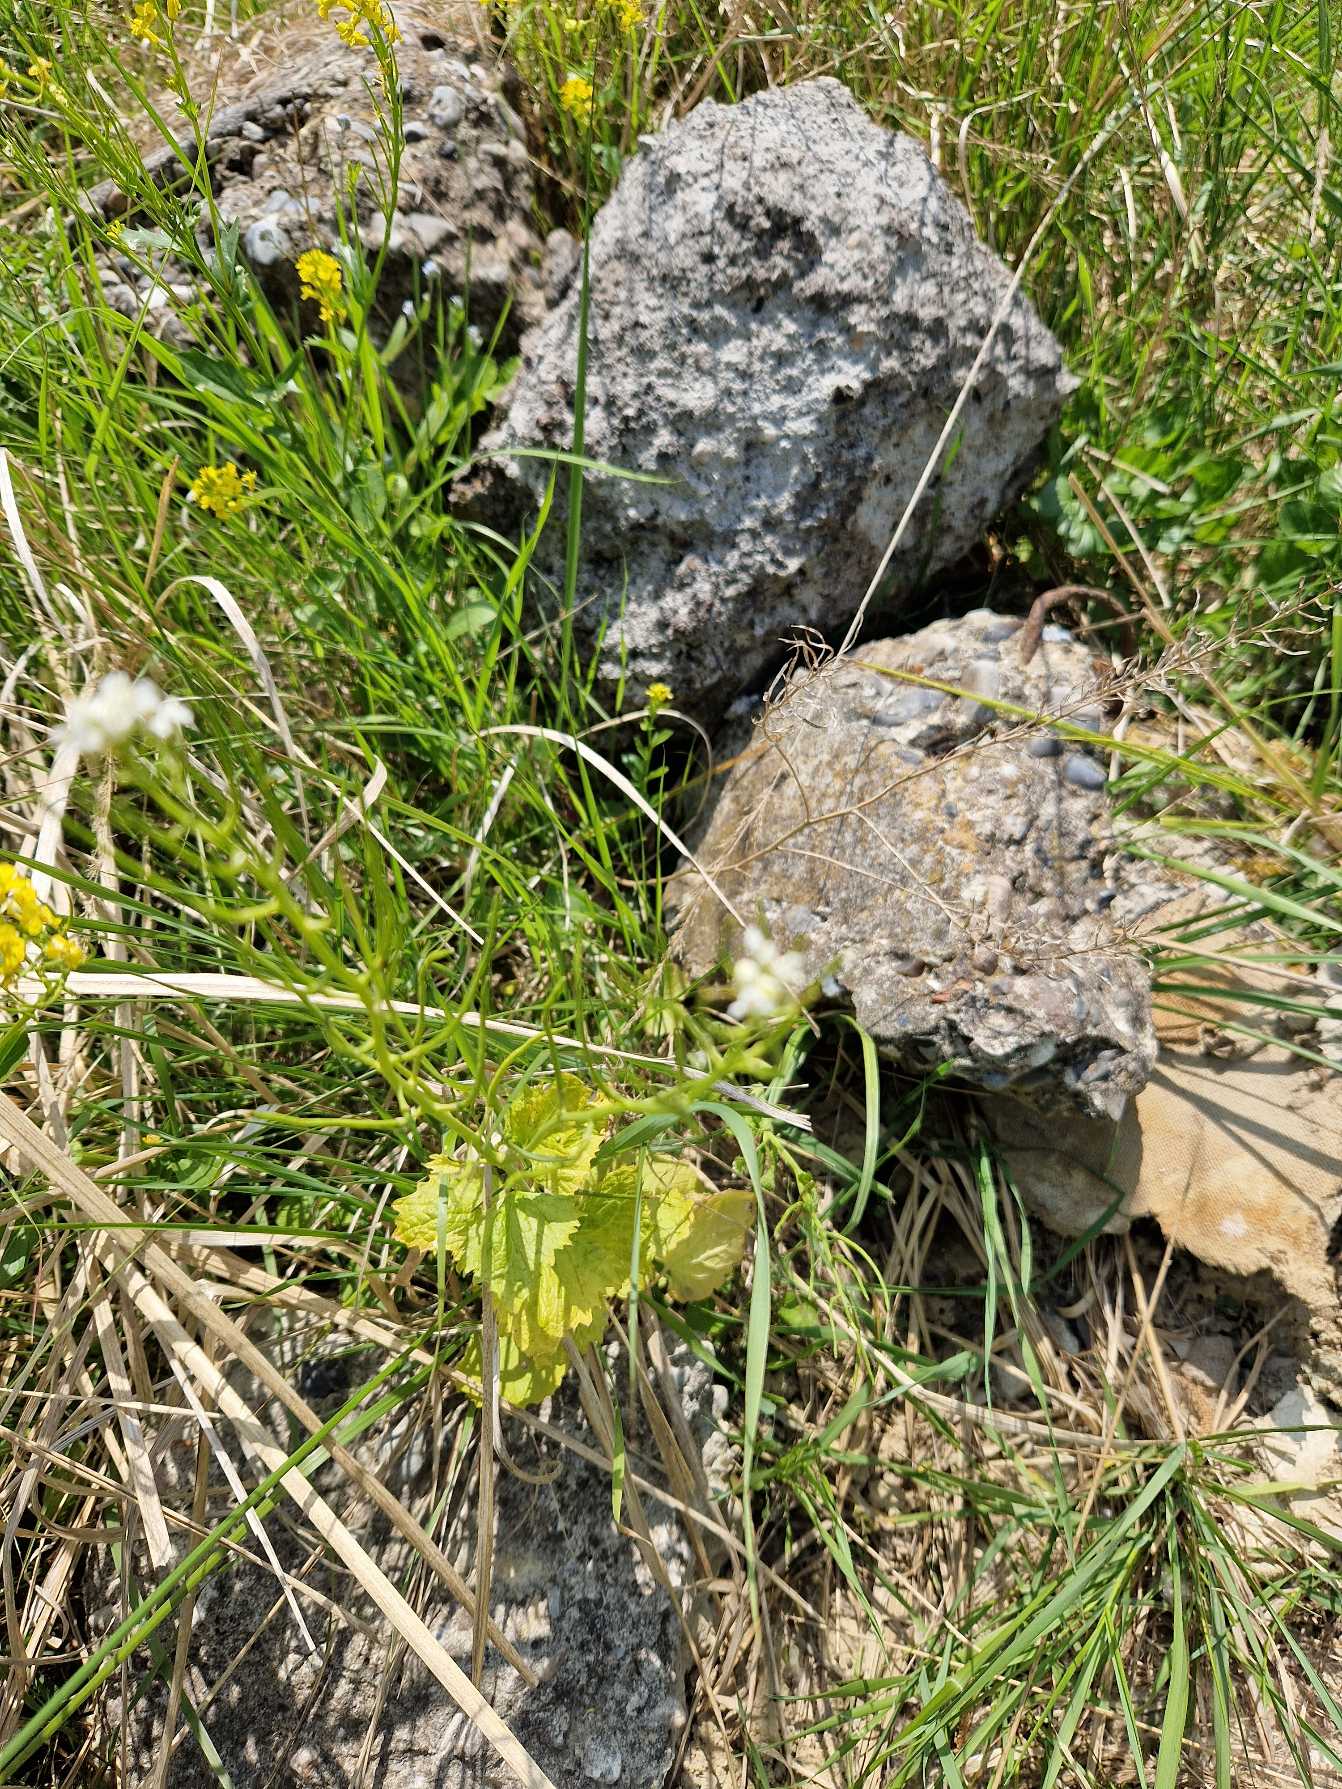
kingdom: Plantae
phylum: Tracheophyta
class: Magnoliopsida
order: Brassicales
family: Brassicaceae
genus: Alliaria
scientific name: Alliaria petiolata
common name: Løgkarse
